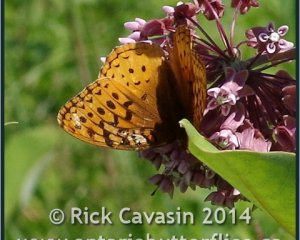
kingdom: Animalia
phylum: Arthropoda
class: Insecta
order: Lepidoptera
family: Nymphalidae
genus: Speyeria
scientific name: Speyeria cybele
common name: Great Spangled Fritillary
